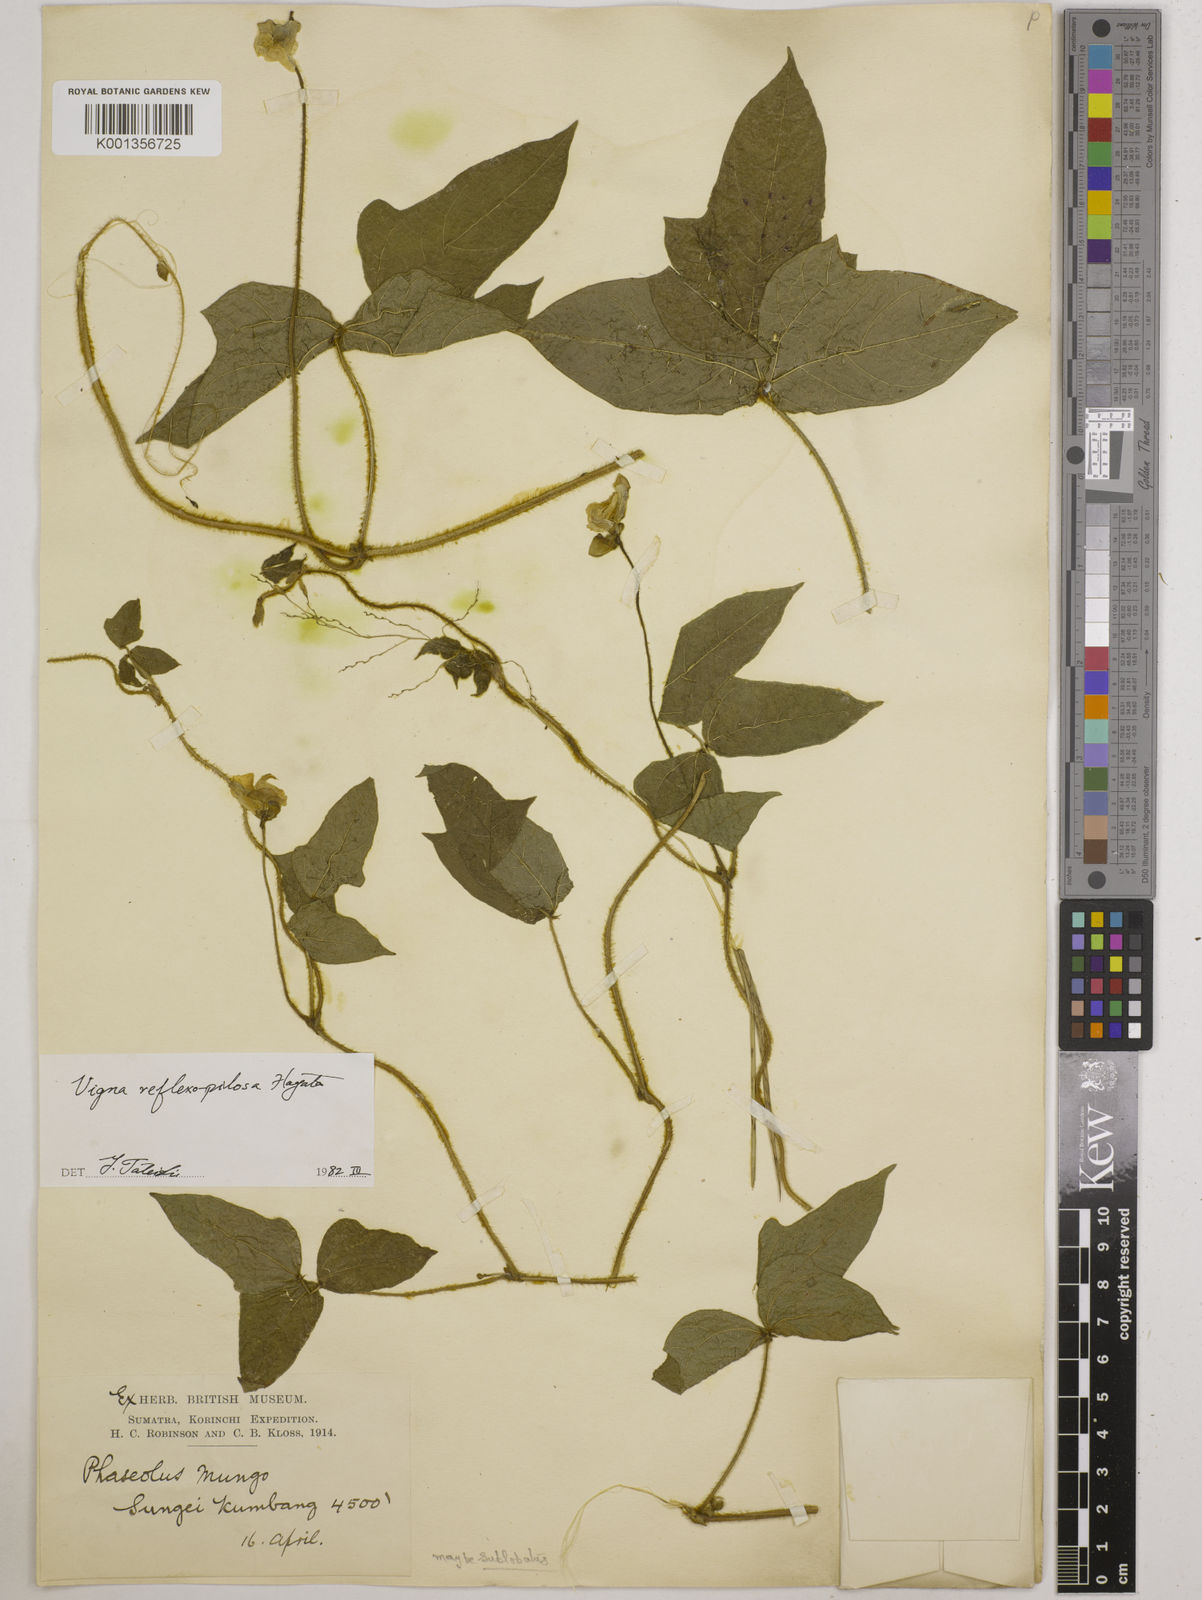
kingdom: Plantae
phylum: Tracheophyta
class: Magnoliopsida
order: Fabales
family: Fabaceae
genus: Vigna
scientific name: Vigna reflexopilosa
